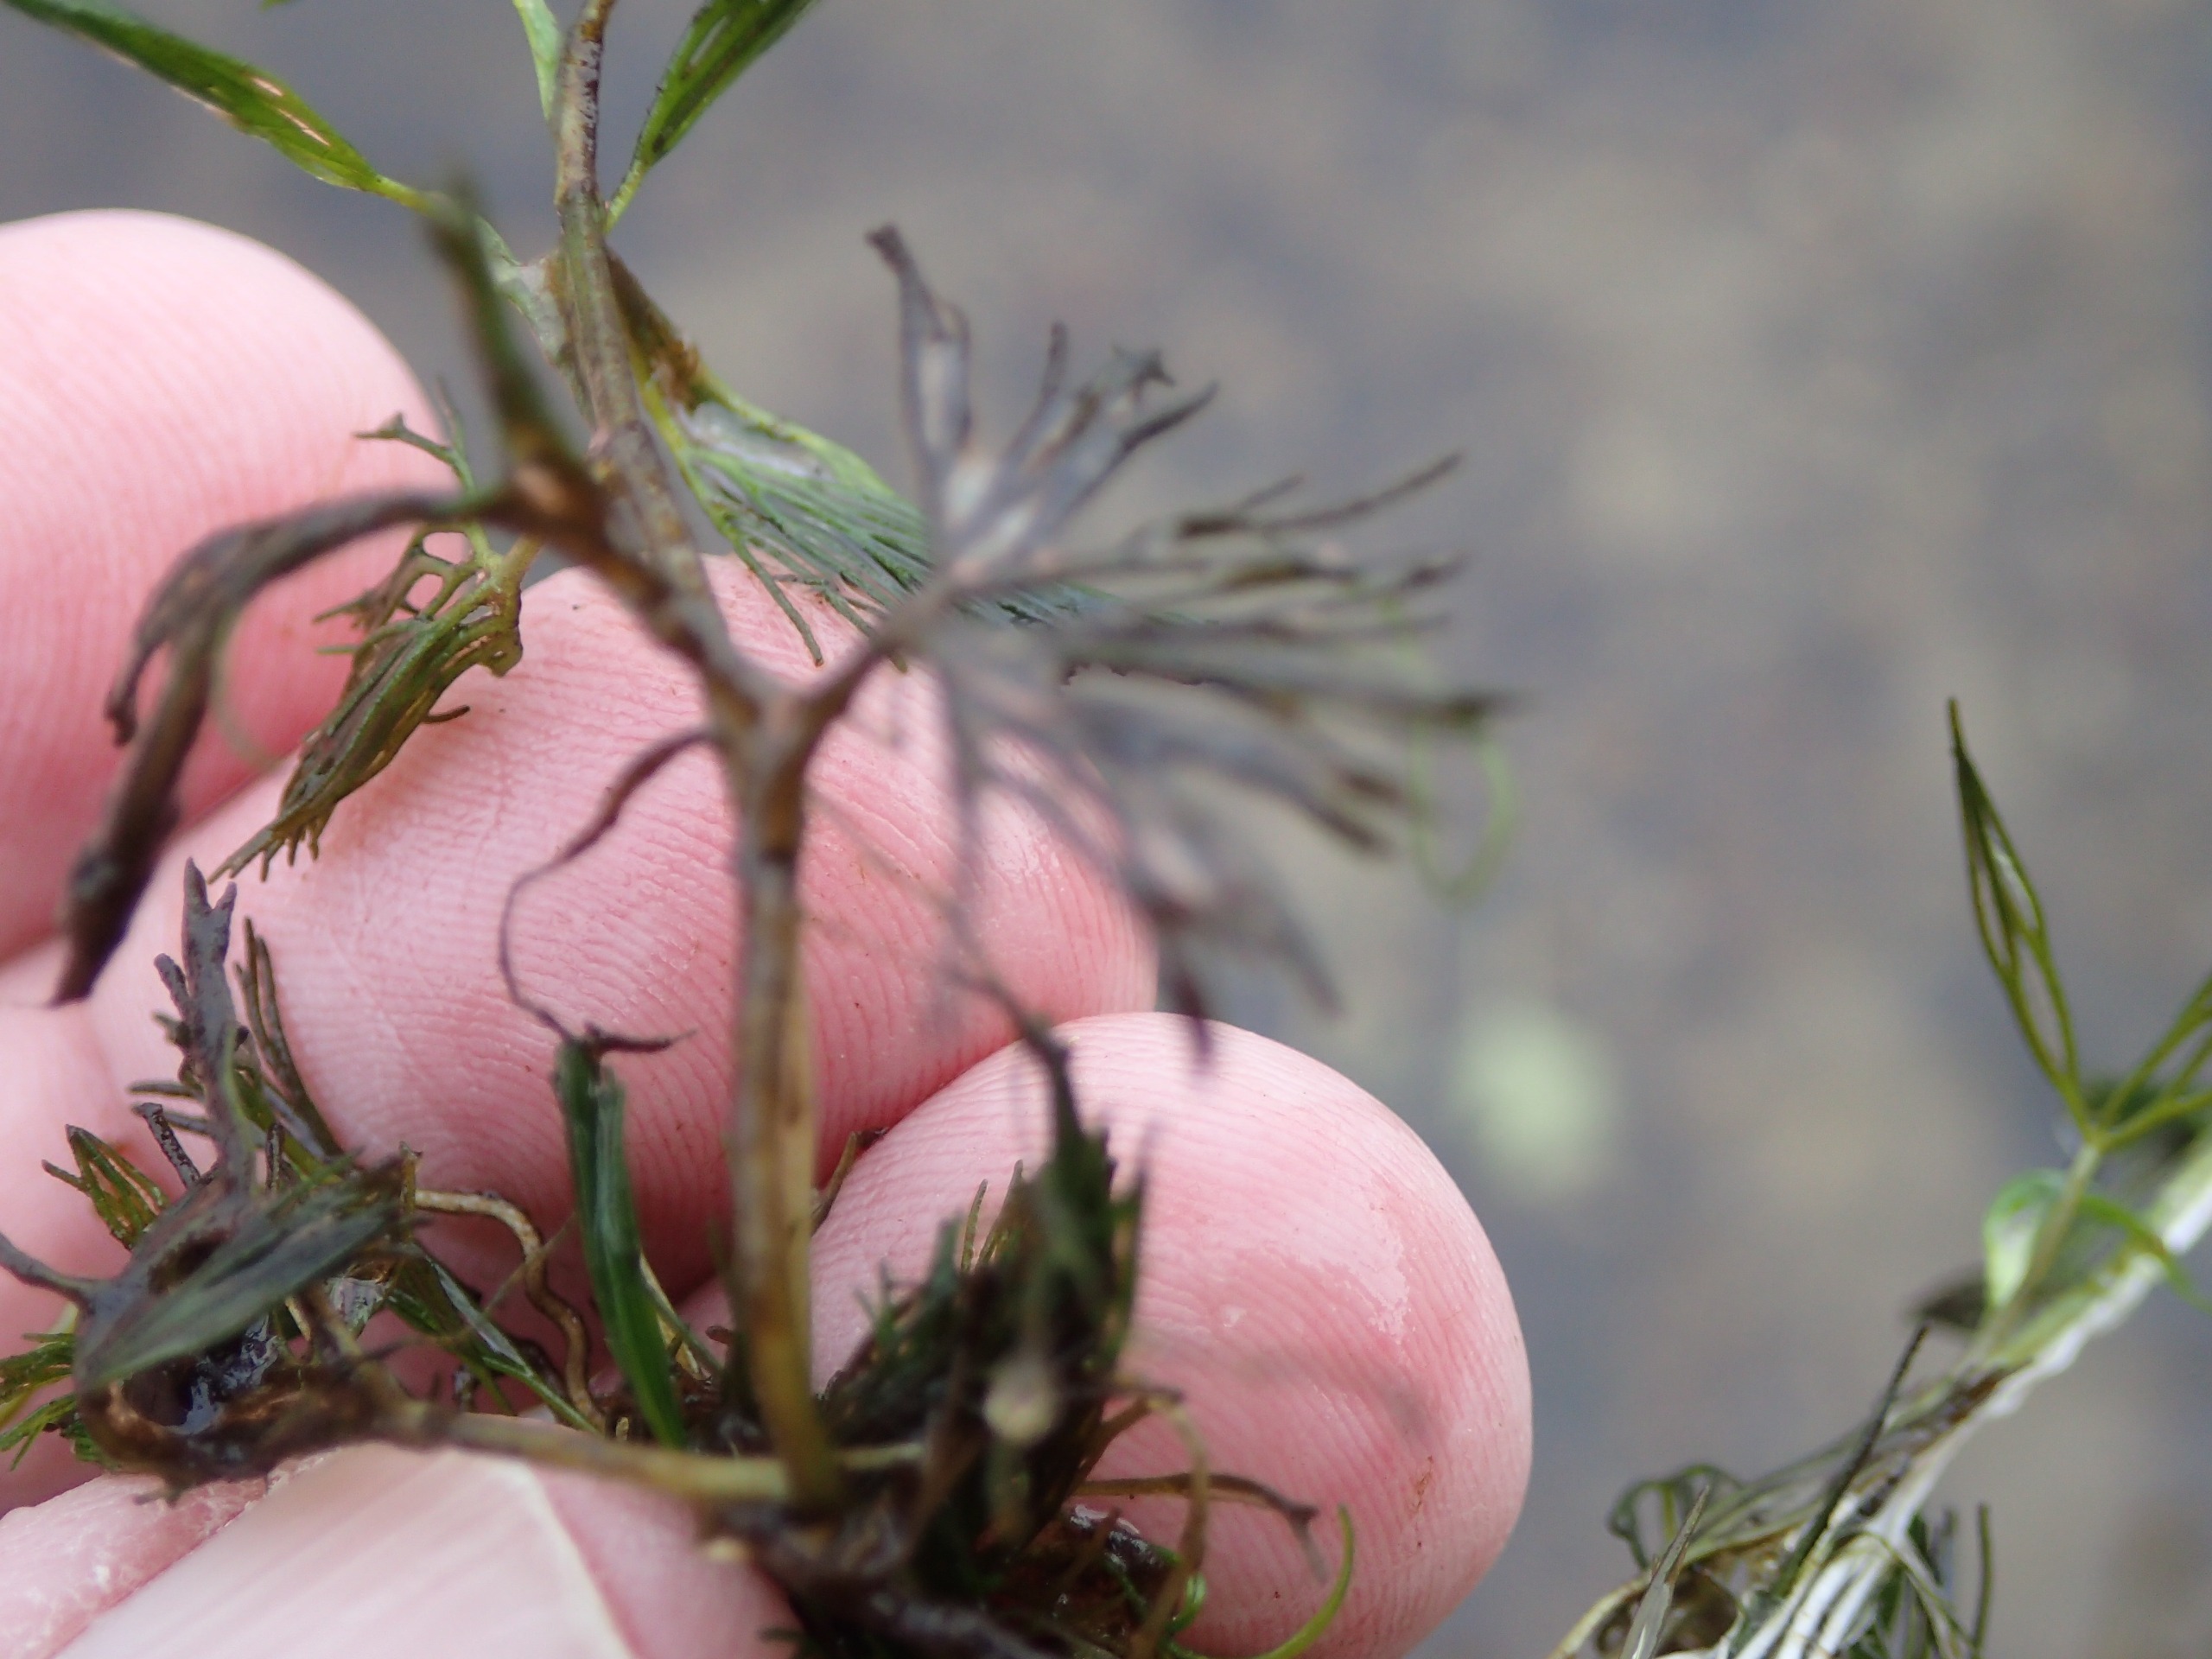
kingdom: Plantae
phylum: Tracheophyta
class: Magnoliopsida
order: Ranunculales
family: Ranunculaceae
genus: Ranunculus
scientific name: Ranunculus circinatus
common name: Kredsbladet vandranunkel
